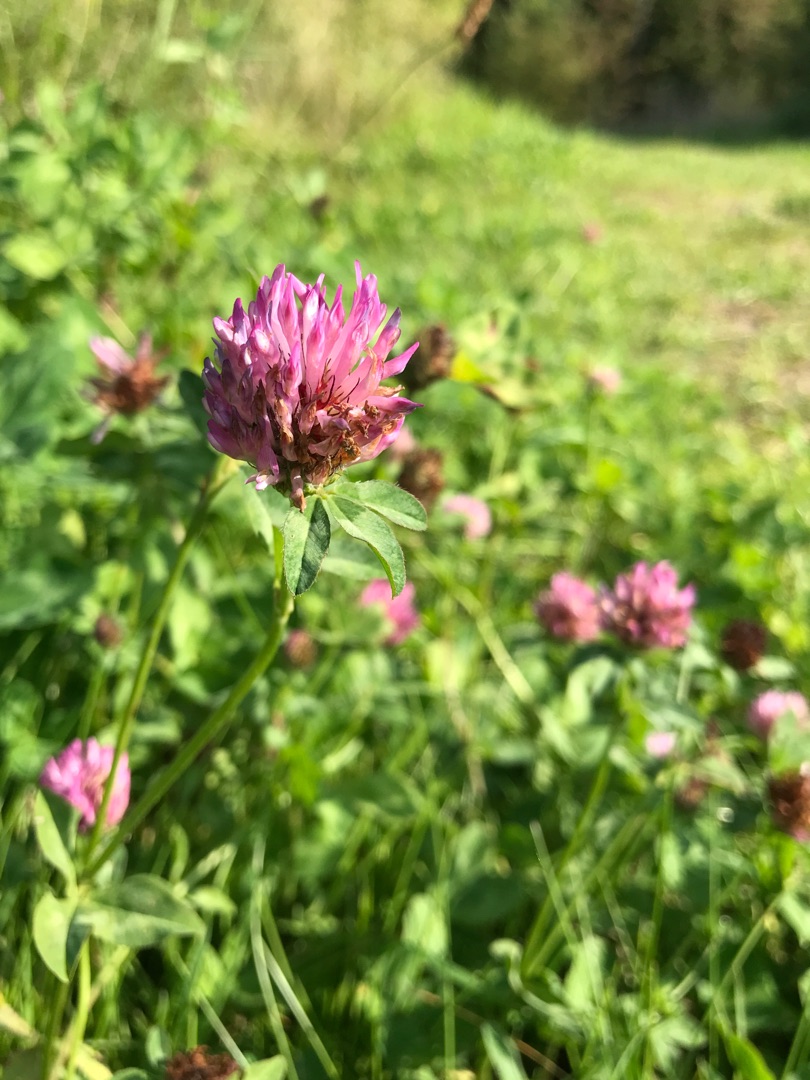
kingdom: Plantae
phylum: Tracheophyta
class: Magnoliopsida
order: Fabales
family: Fabaceae
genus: Trifolium
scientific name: Trifolium pratense
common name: Rød-kløver
